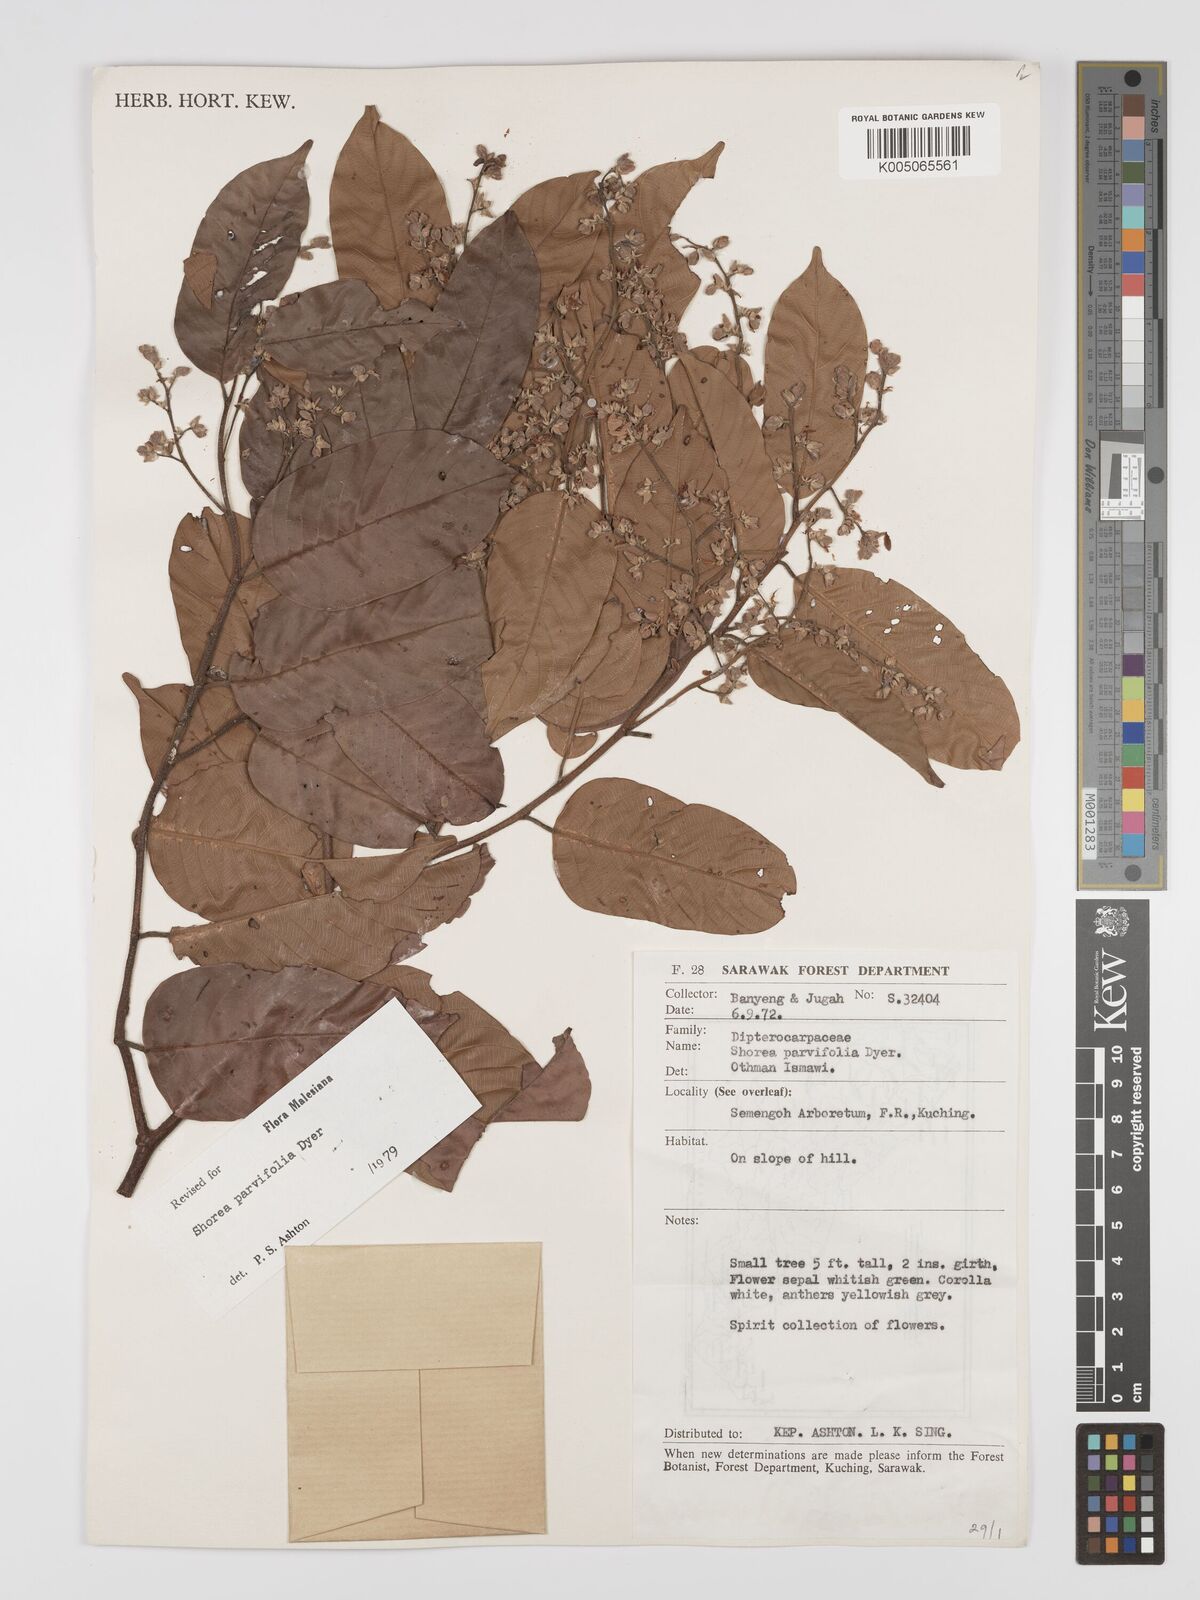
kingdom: Plantae
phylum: Tracheophyta
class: Magnoliopsida
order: Malvales
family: Dipterocarpaceae
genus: Shorea
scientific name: Shorea parvifolia
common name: Light red meranti
